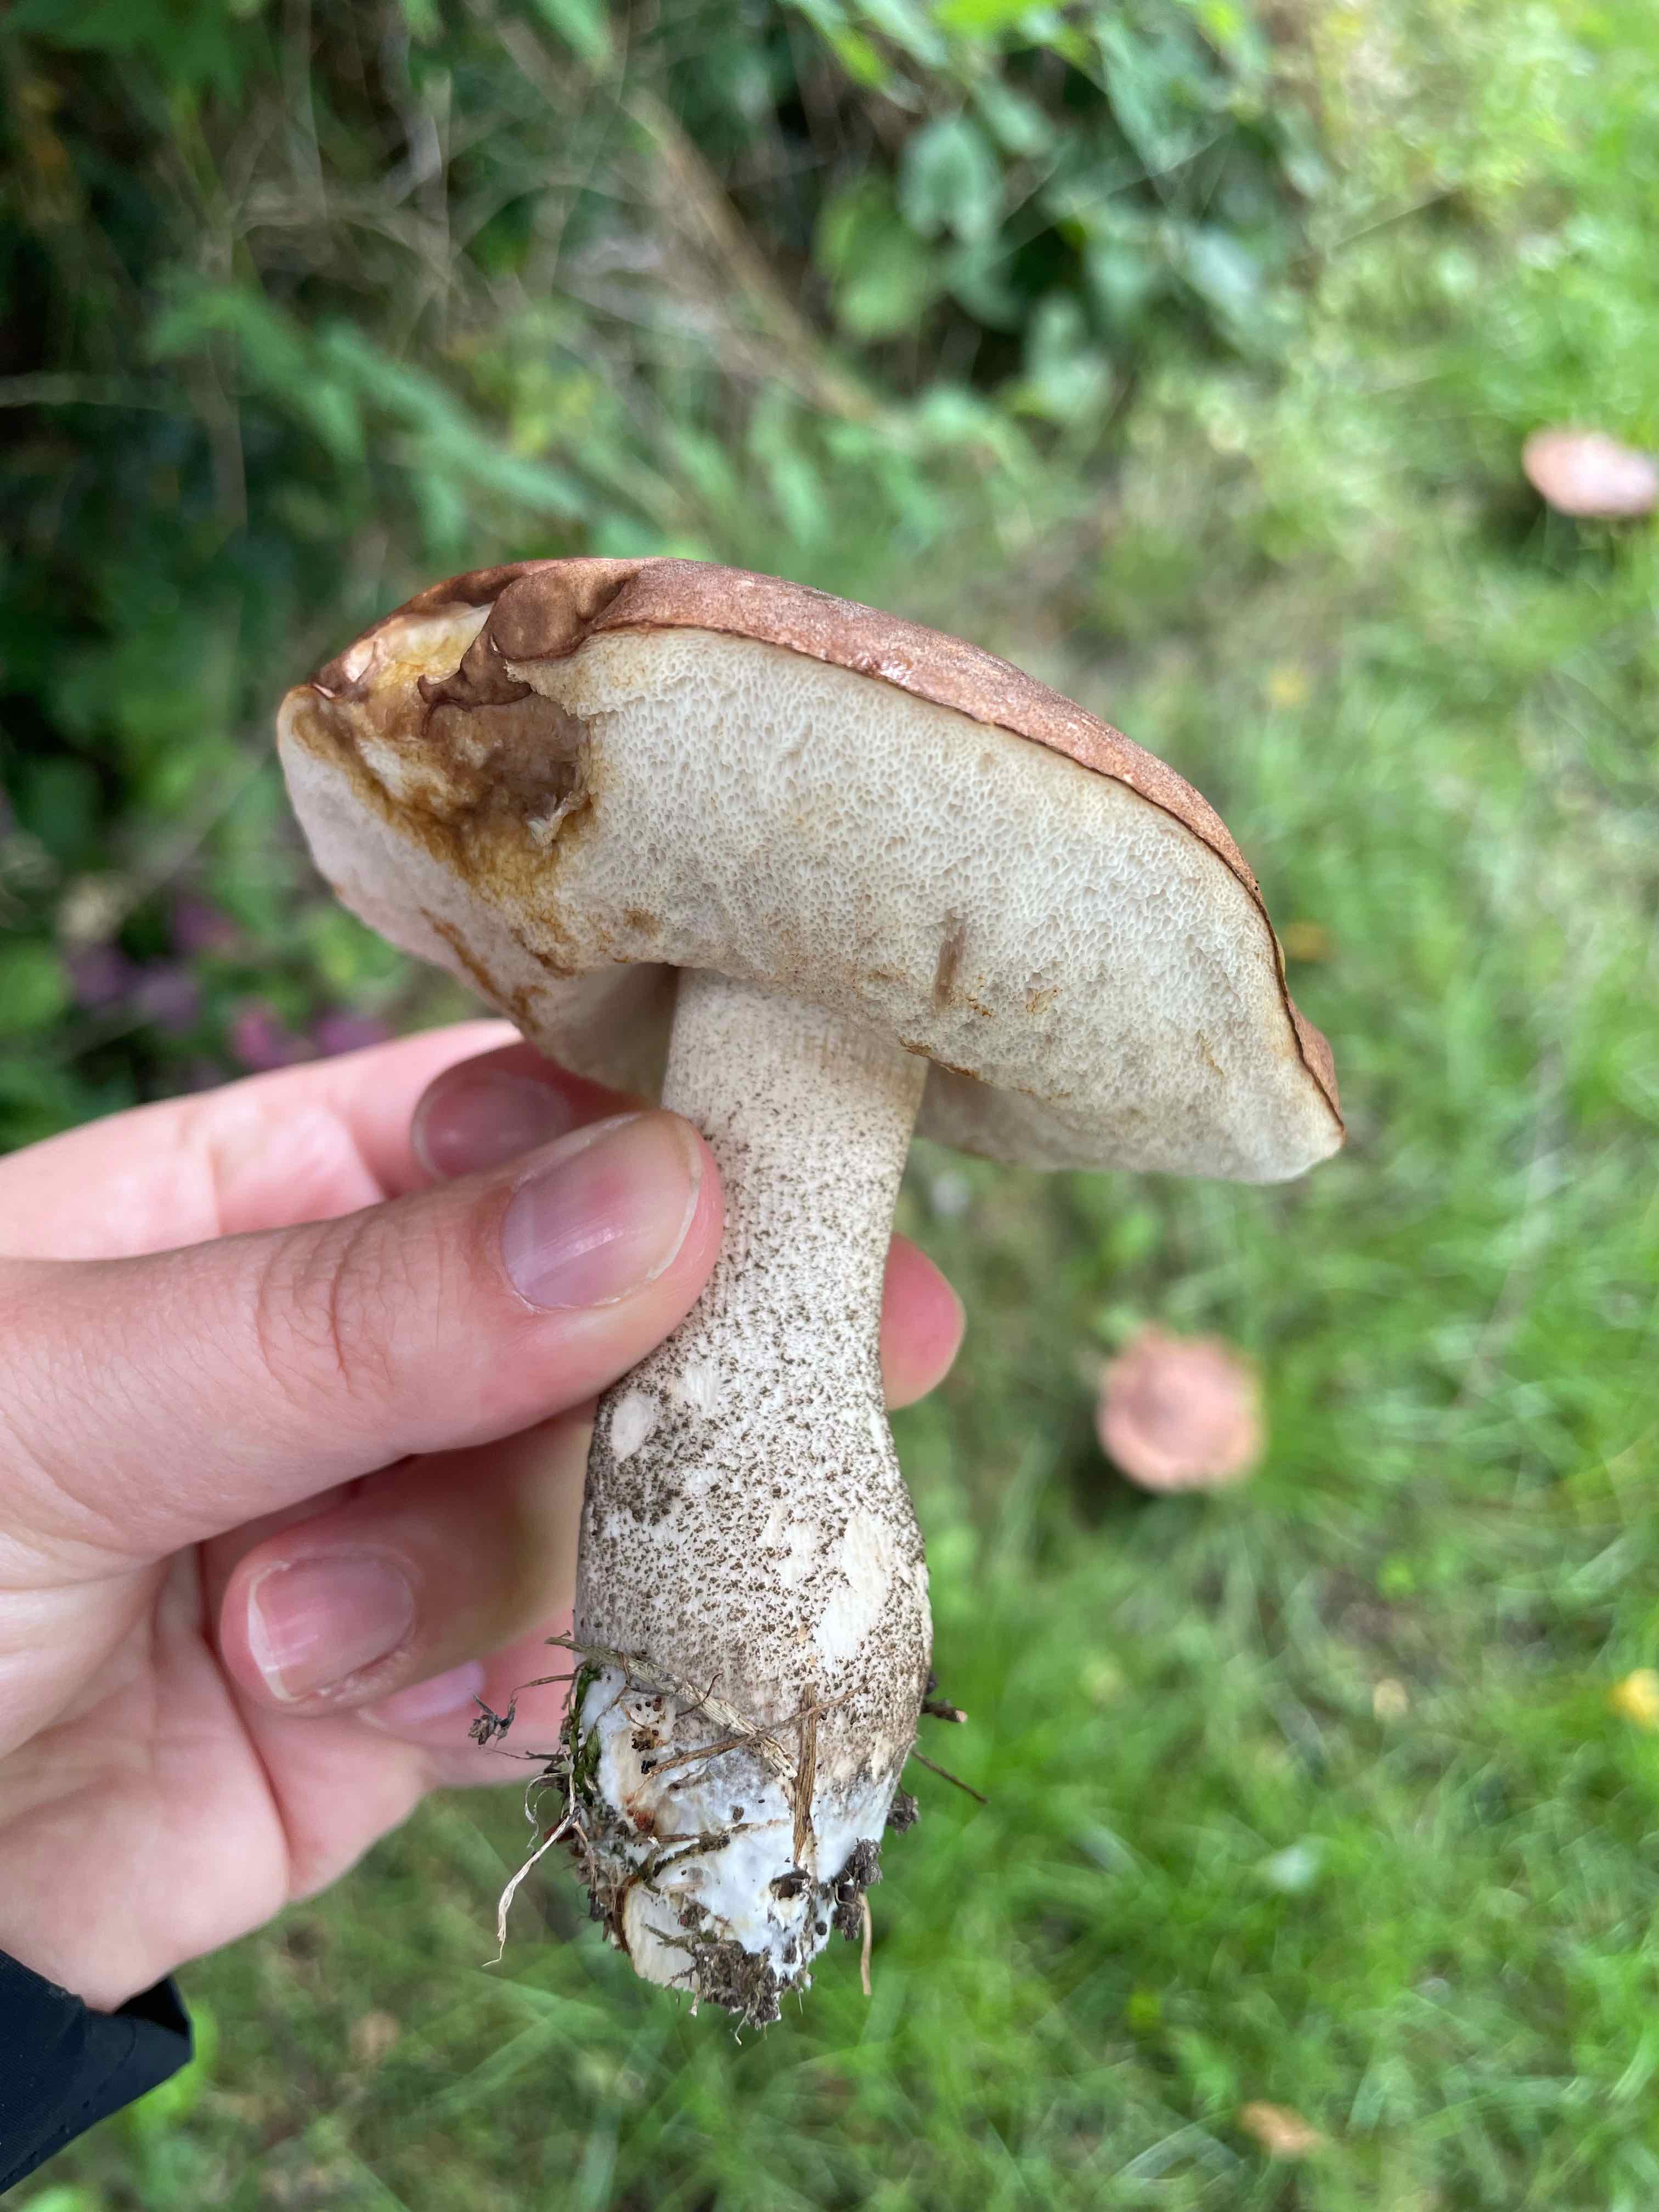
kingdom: Fungi
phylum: Basidiomycota
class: Agaricomycetes
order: Boletales
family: Boletaceae
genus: Leccinum
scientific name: Leccinum scabrum
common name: brun skælrørhat
